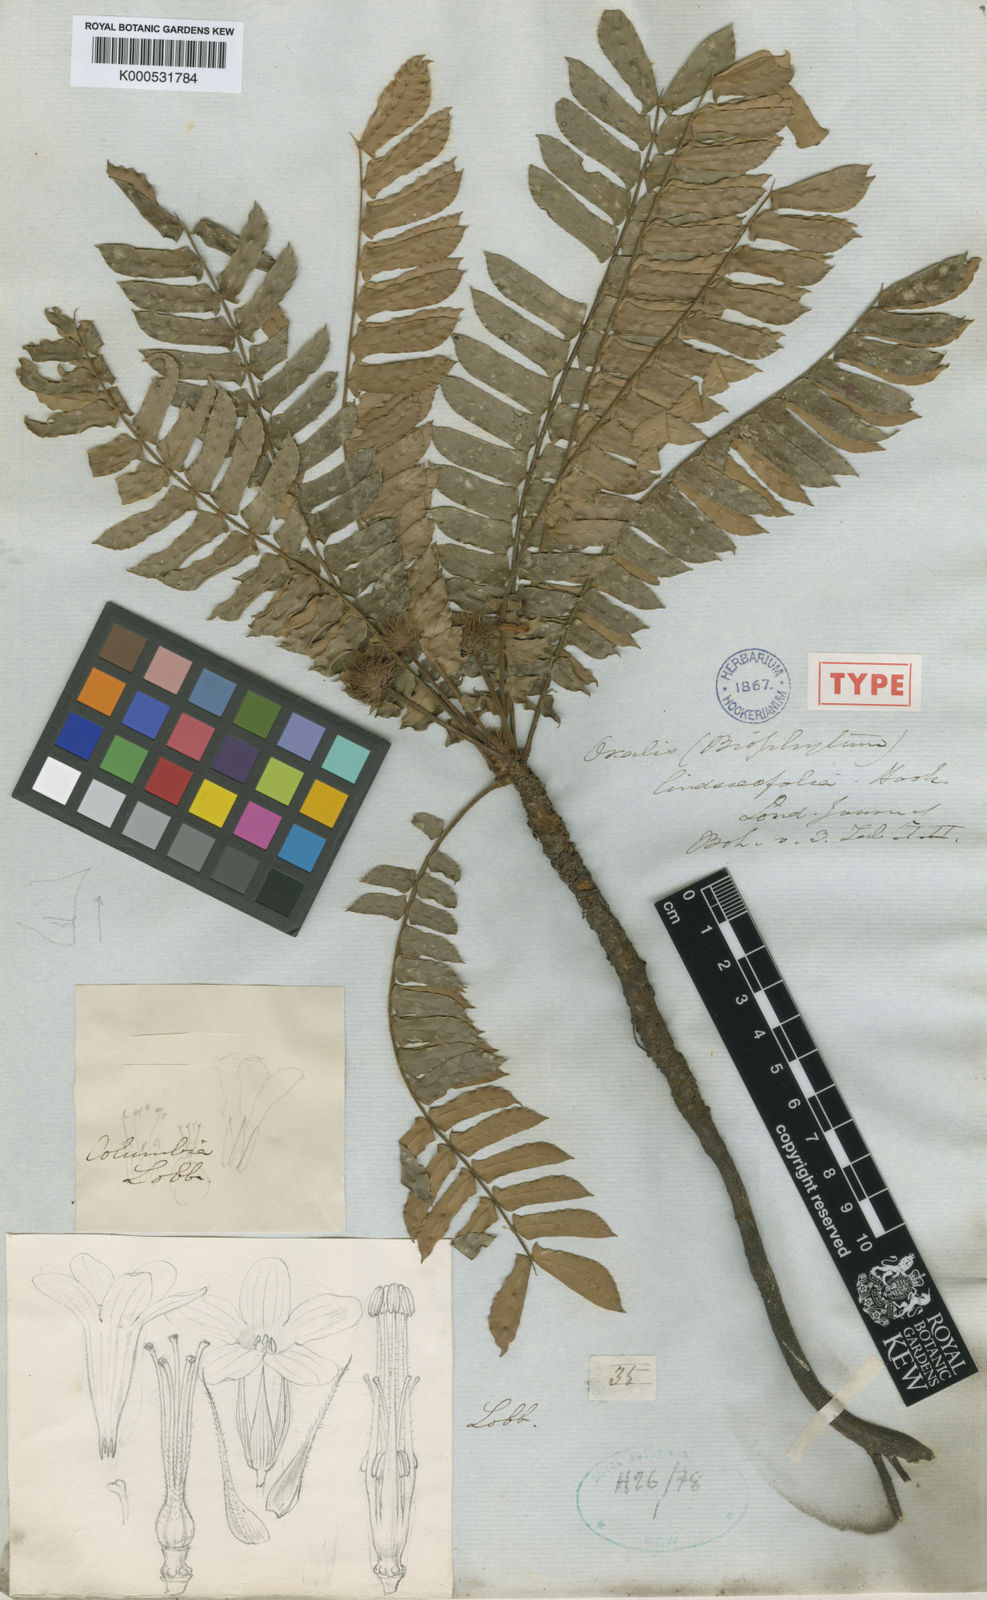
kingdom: Plantae
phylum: Tracheophyta
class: Magnoliopsida
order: Oxalidales
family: Oxalidaceae
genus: Biophytum
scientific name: Biophytum lindsaeifolium
